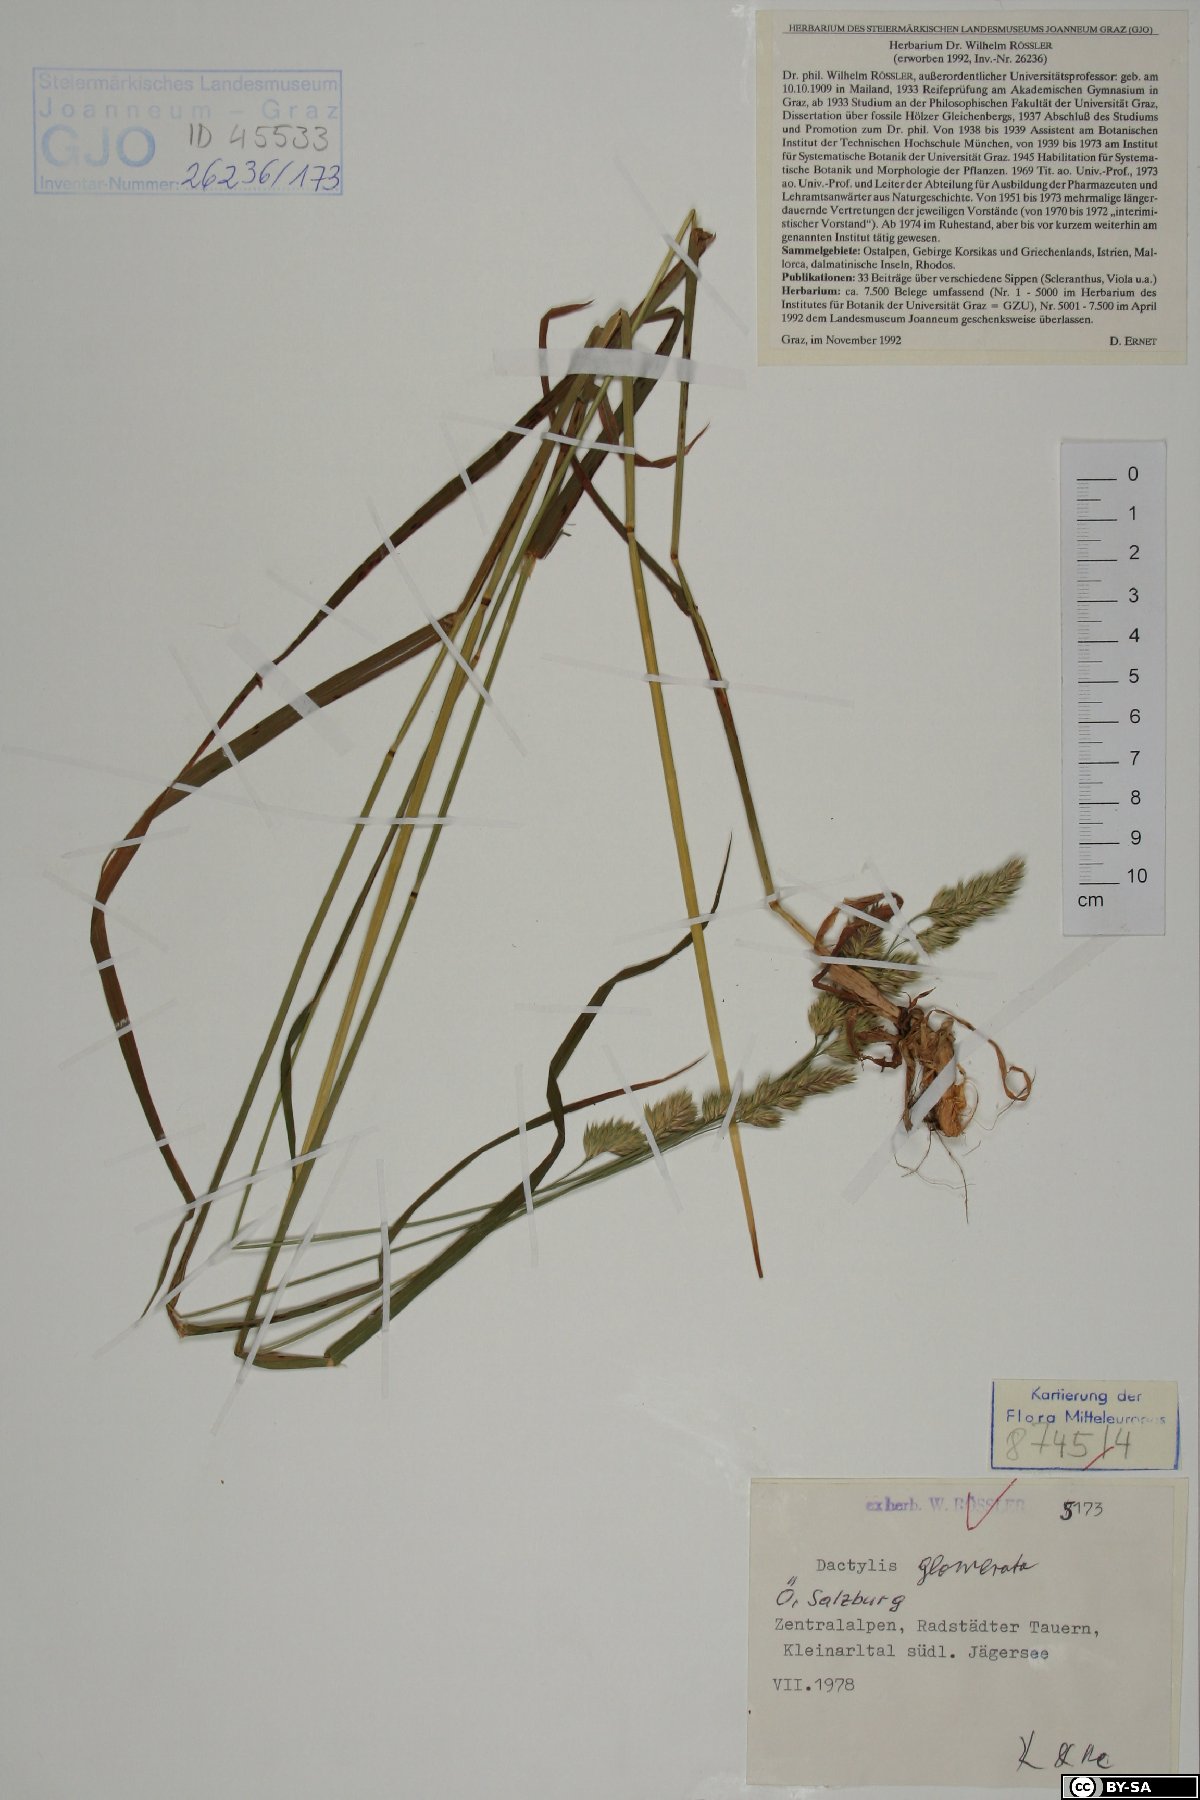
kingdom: Plantae
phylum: Tracheophyta
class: Liliopsida
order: Poales
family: Poaceae
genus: Dactylis
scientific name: Dactylis glomerata
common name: Orchardgrass
